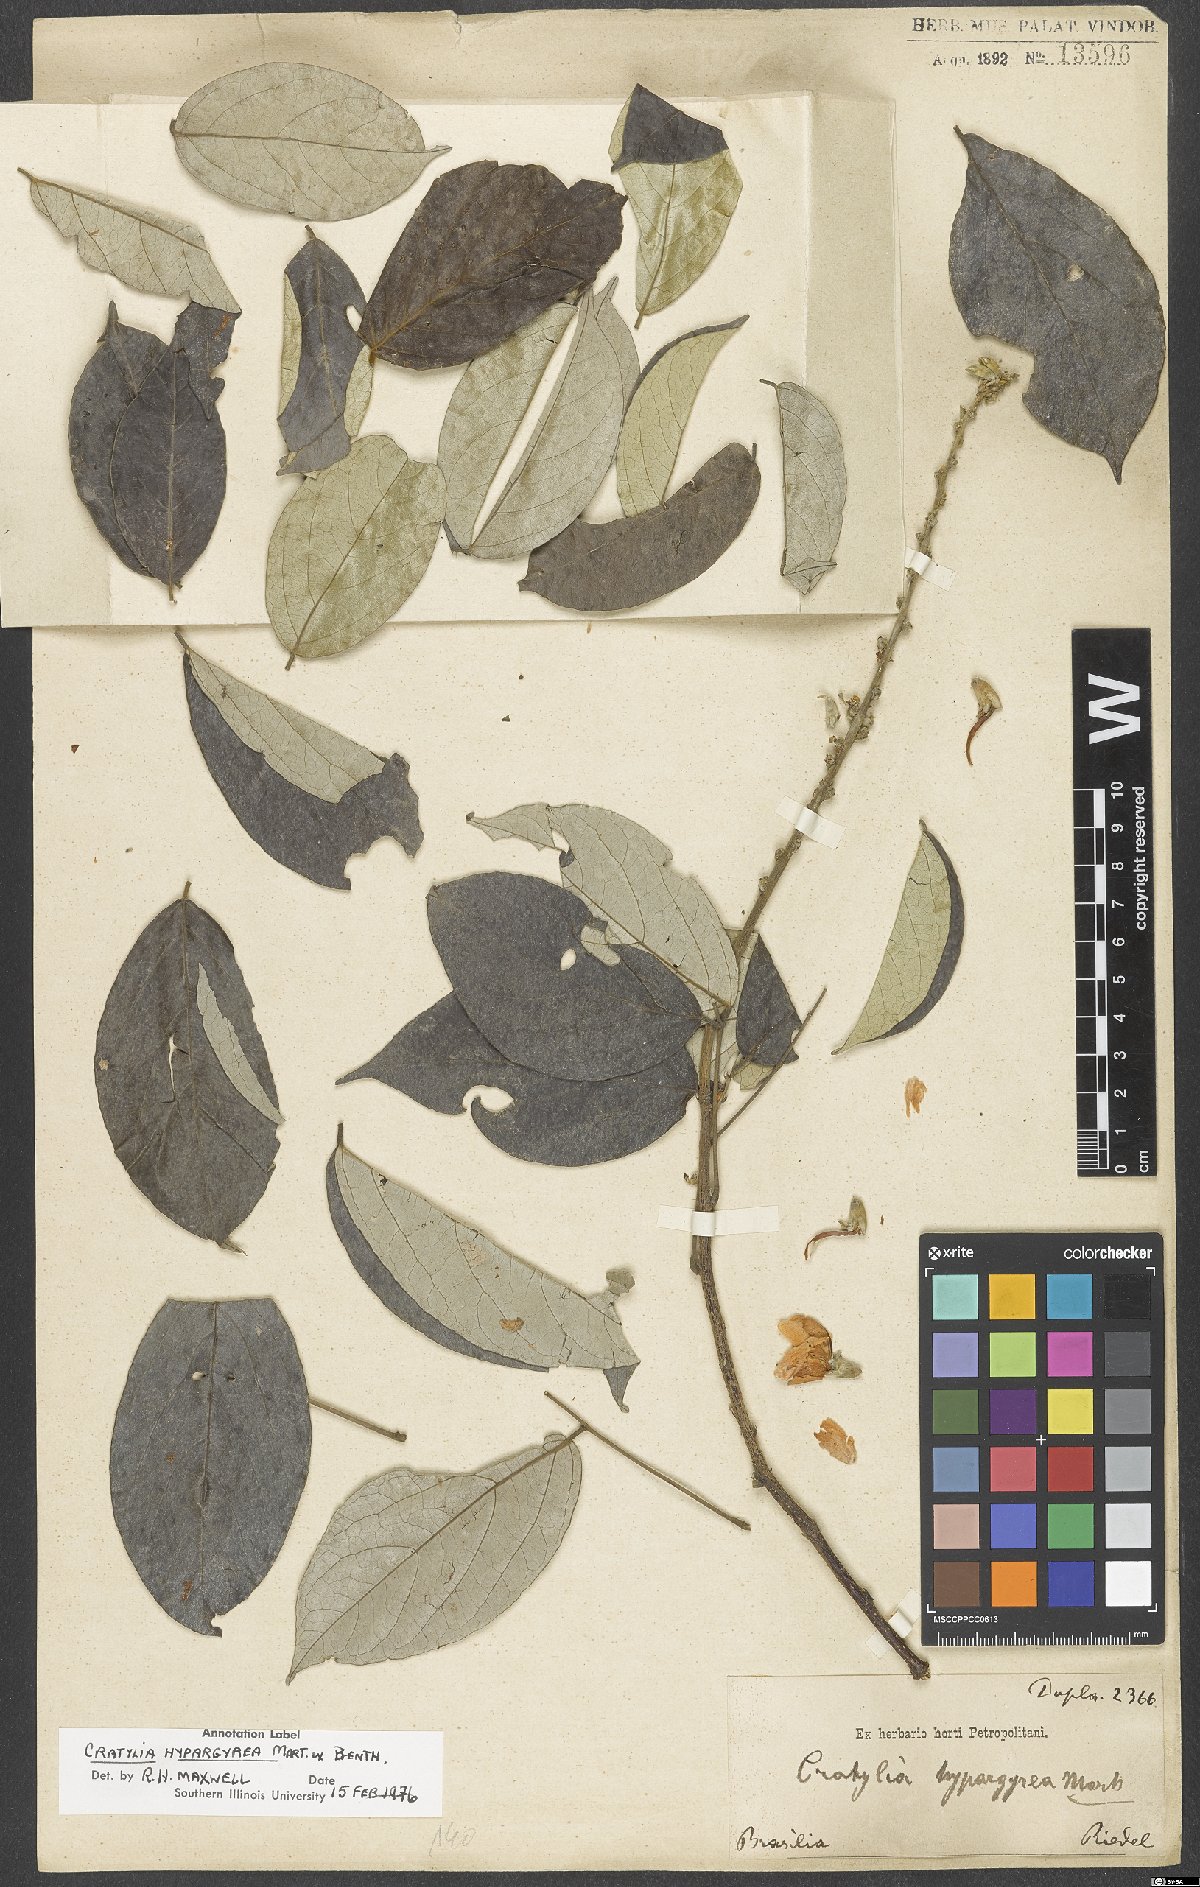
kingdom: Plantae
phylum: Tracheophyta
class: Magnoliopsida
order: Fabales
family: Fabaceae
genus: Cratylia
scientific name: Cratylia hypargyraea
